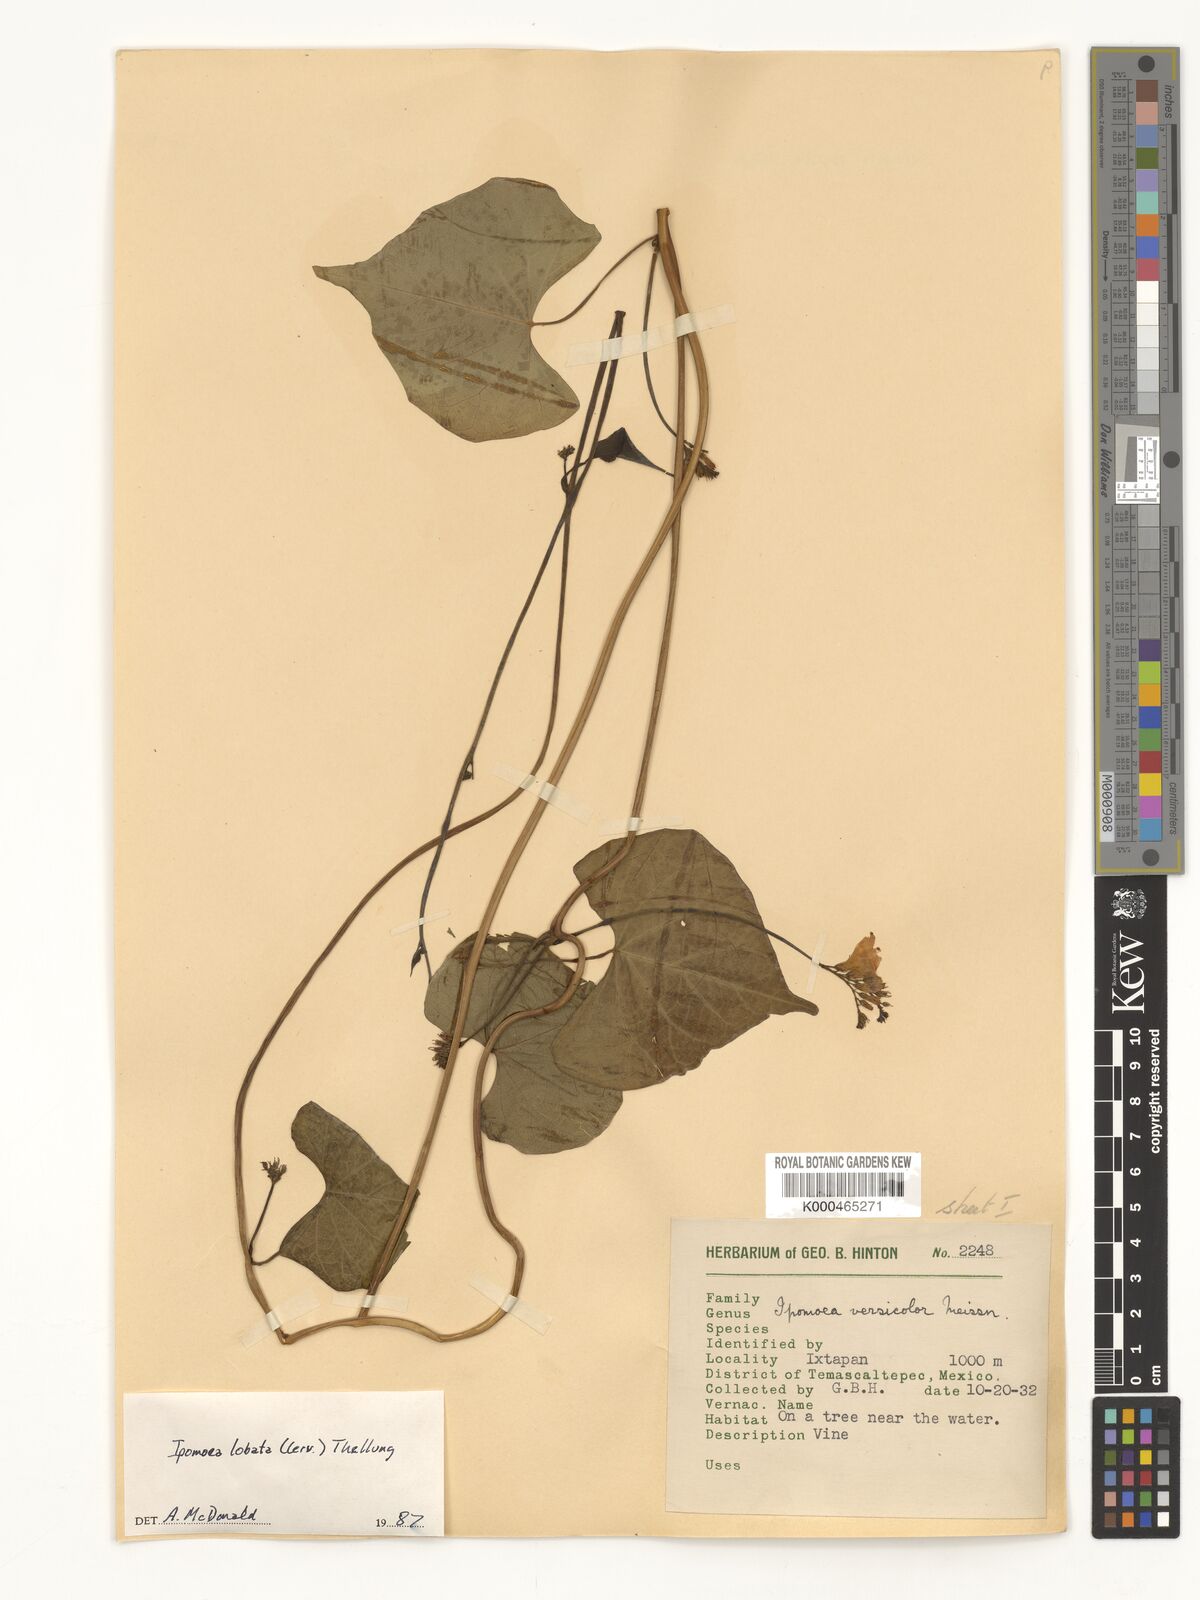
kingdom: Plantae
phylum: Tracheophyta
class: Magnoliopsida
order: Solanales
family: Convolvulaceae
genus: Ipomoea
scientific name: Ipomoea lobata
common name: Spanish-flag
